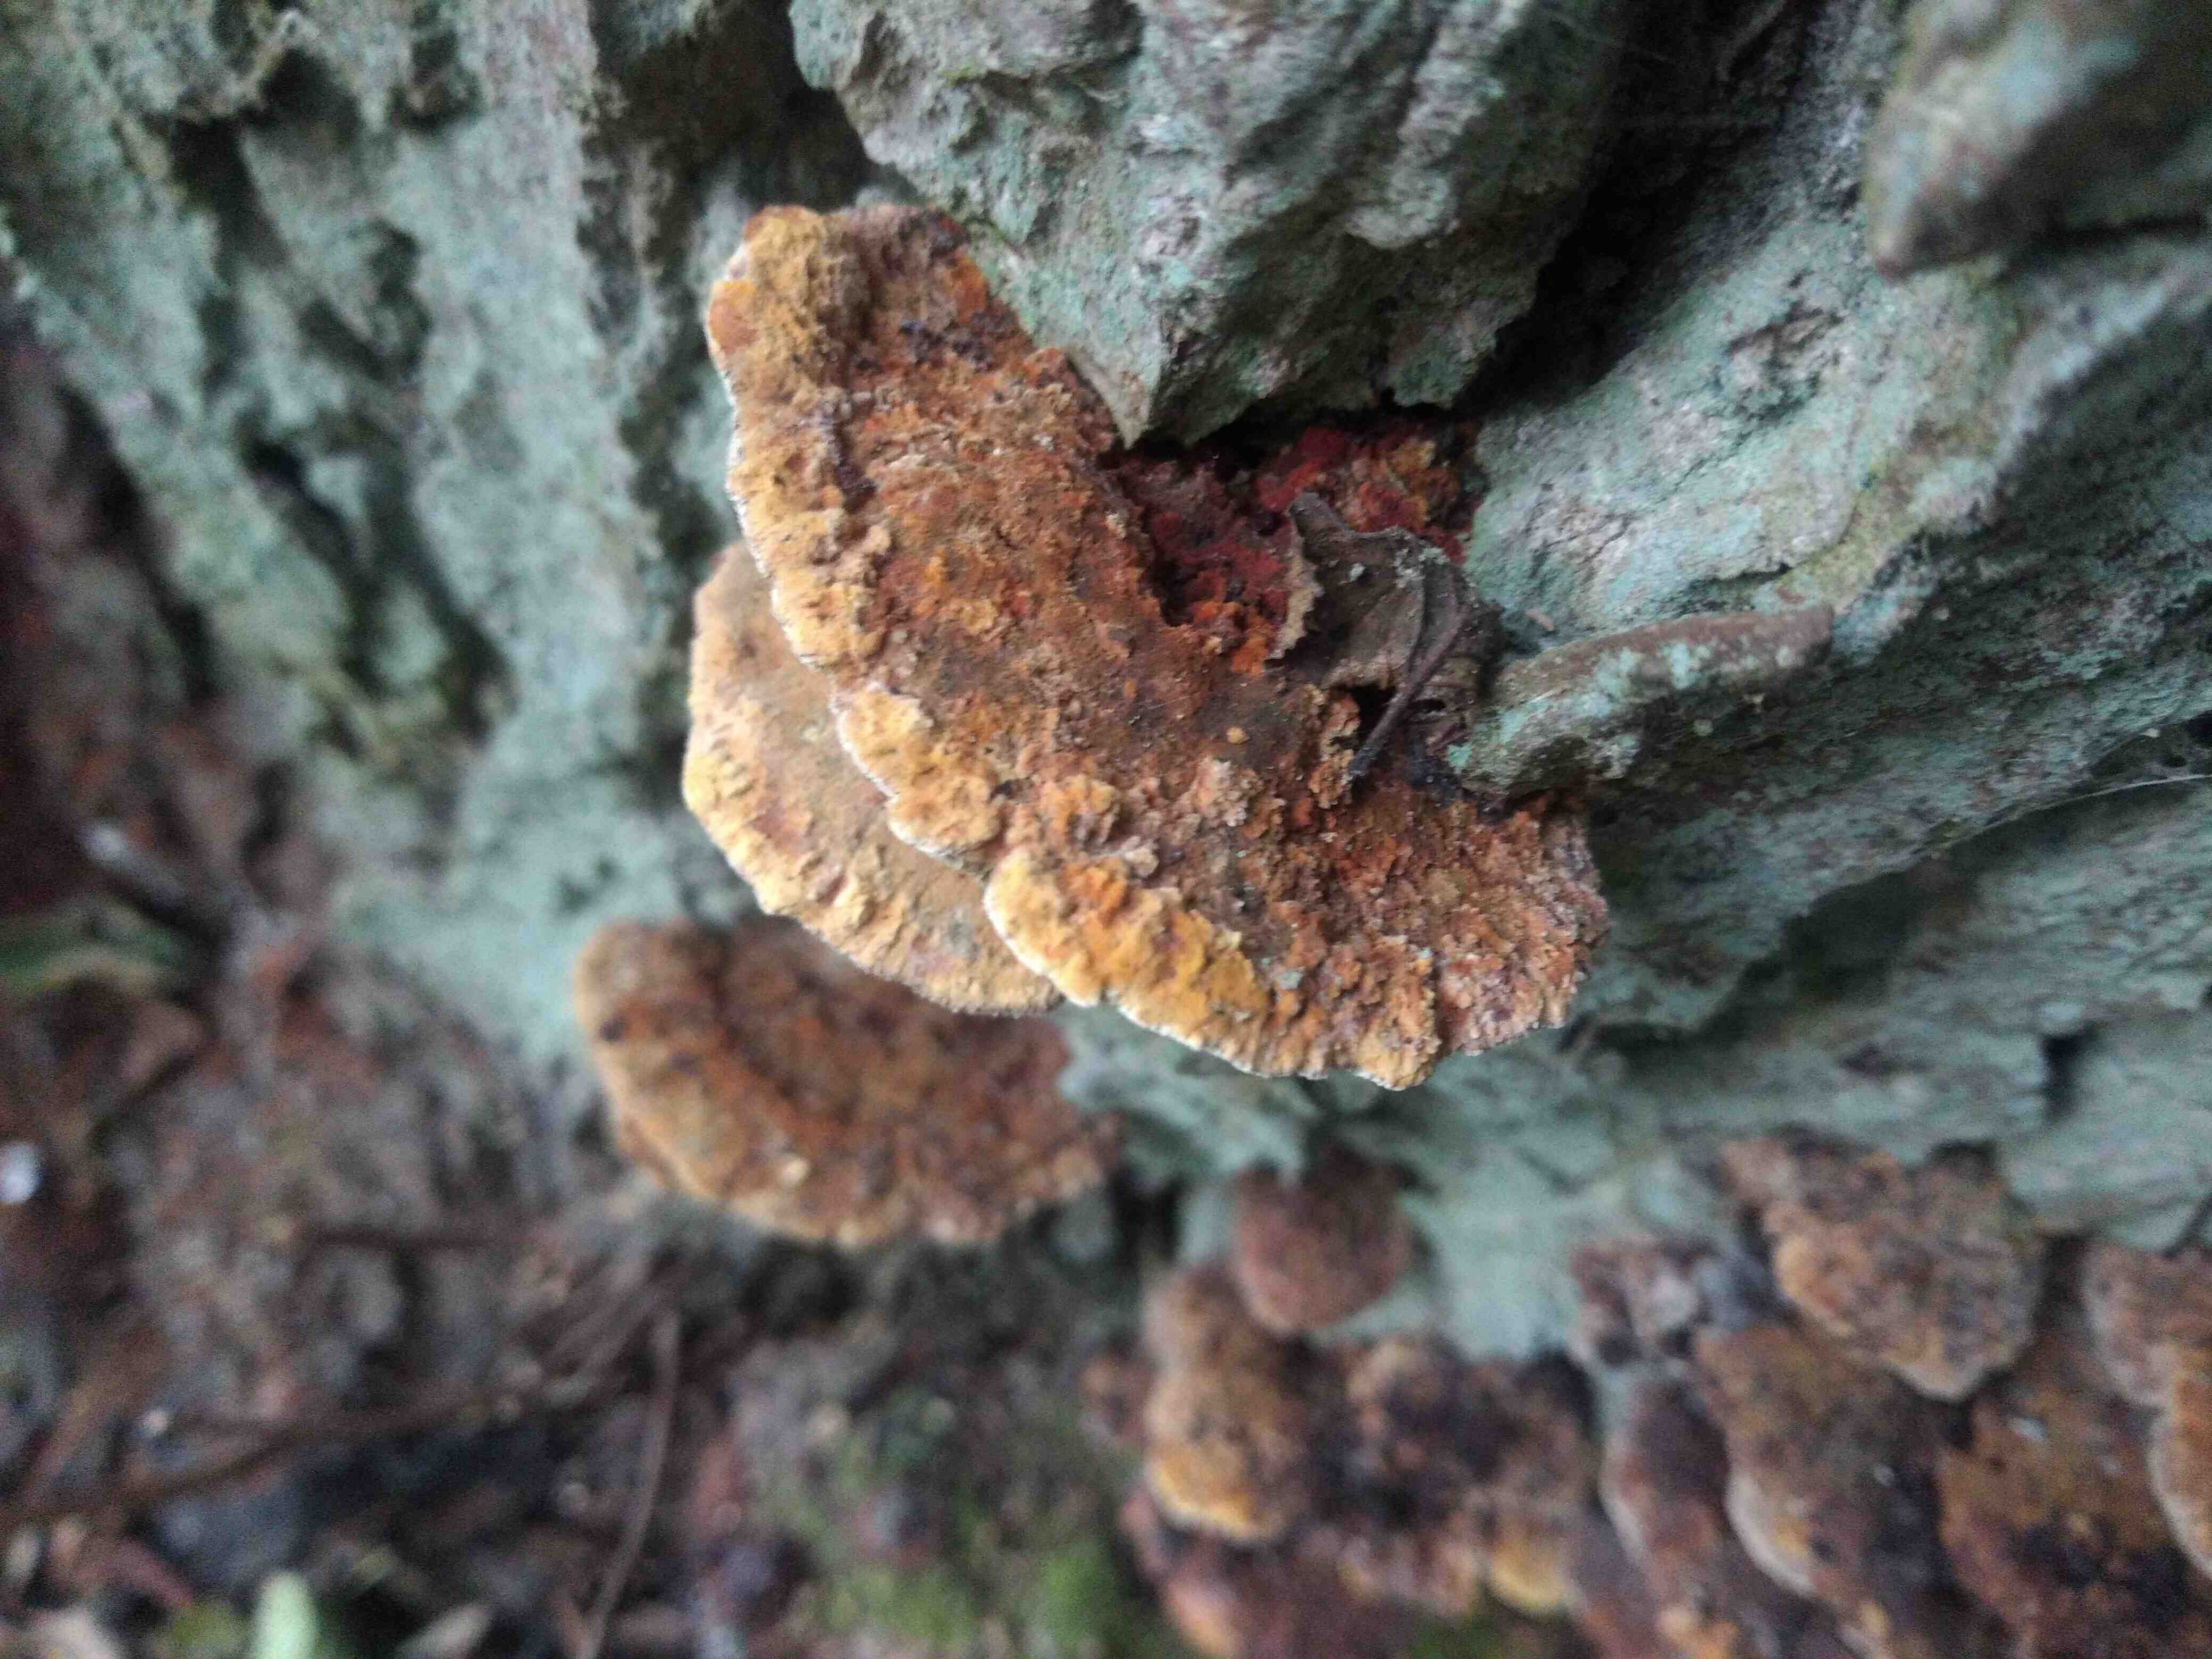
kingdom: Fungi
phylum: Basidiomycota
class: Agaricomycetes
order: Hymenochaetales
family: Hymenochaetaceae
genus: Xanthoporia
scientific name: Xanthoporia radiata
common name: elle-spejlporesvamp
